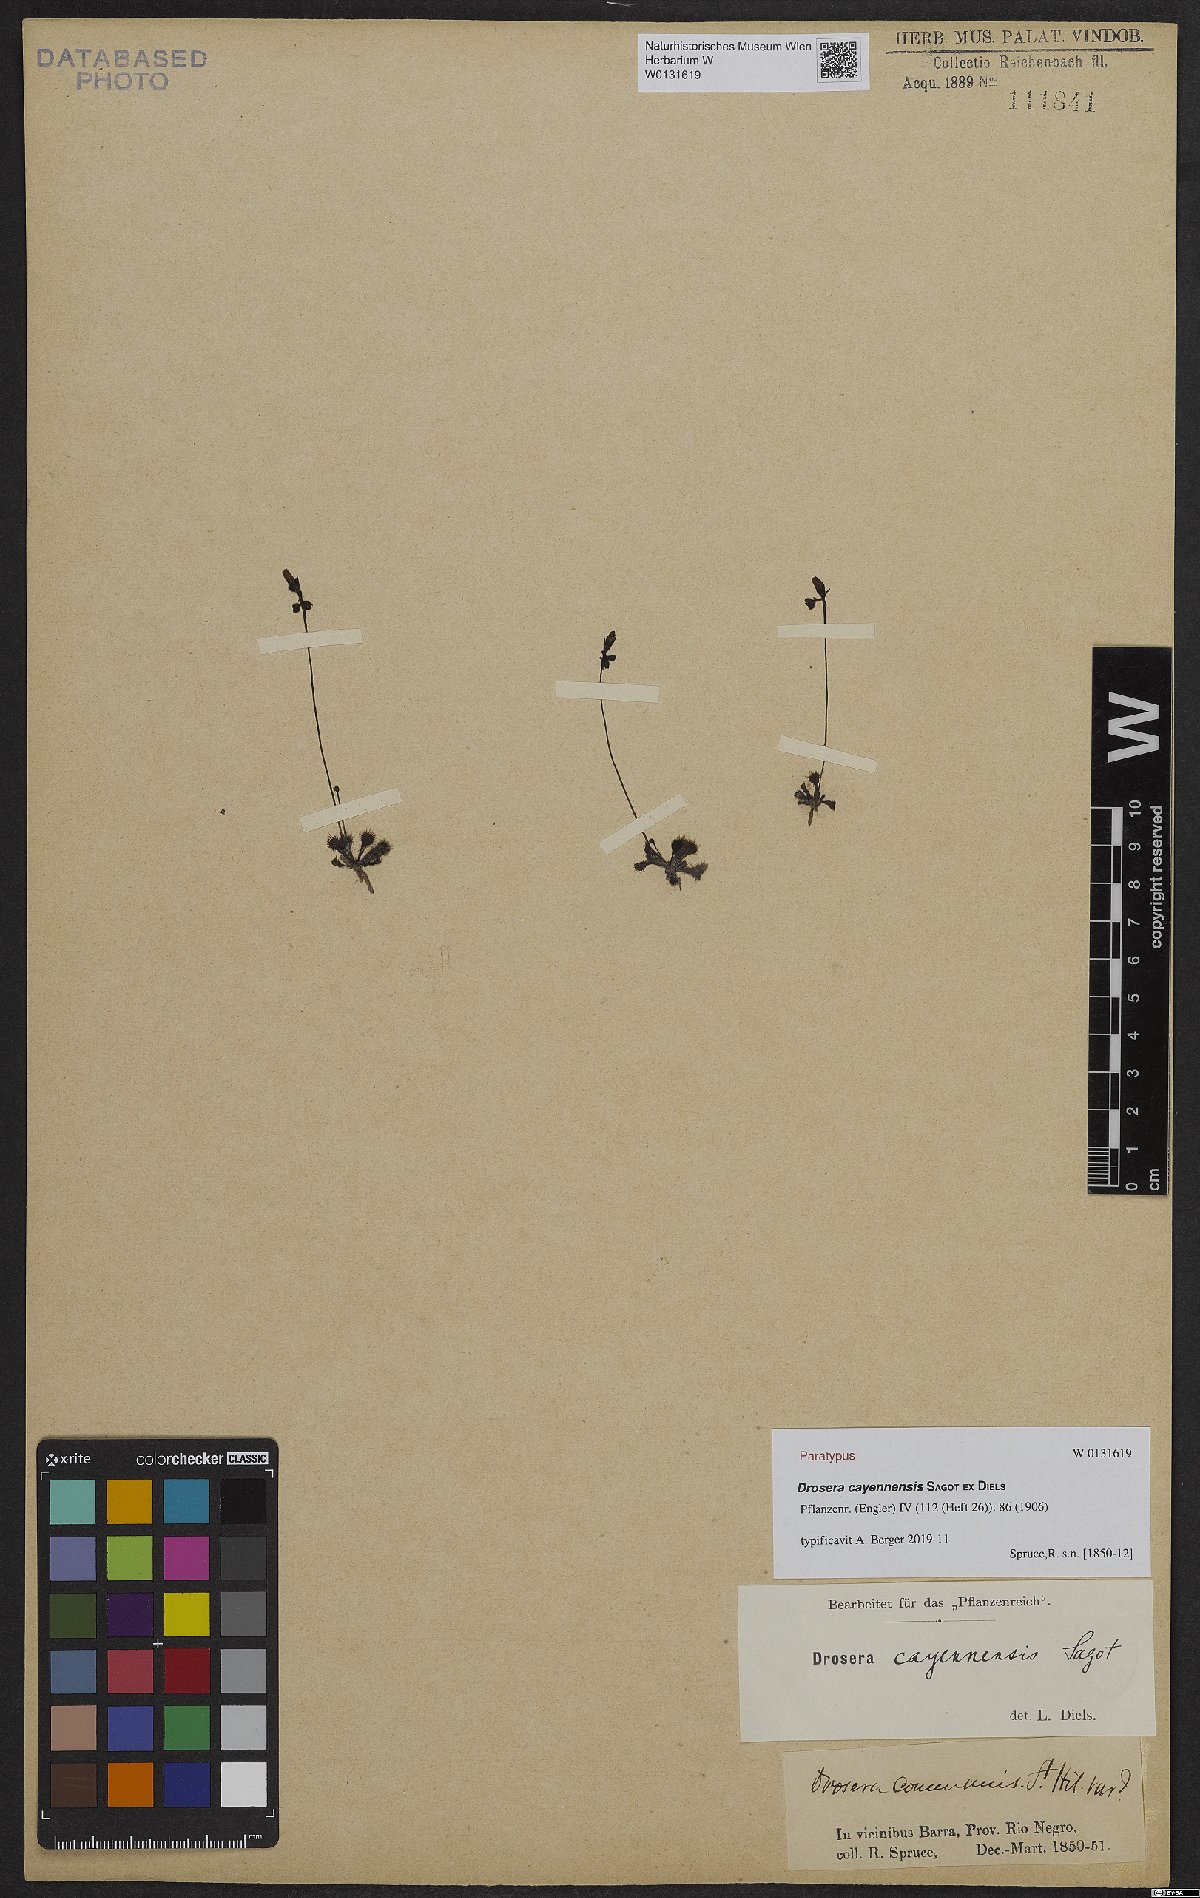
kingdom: Plantae
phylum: Tracheophyta
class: Magnoliopsida
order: Caryophyllales
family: Droseraceae
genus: Drosera
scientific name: Drosera cayennensis
